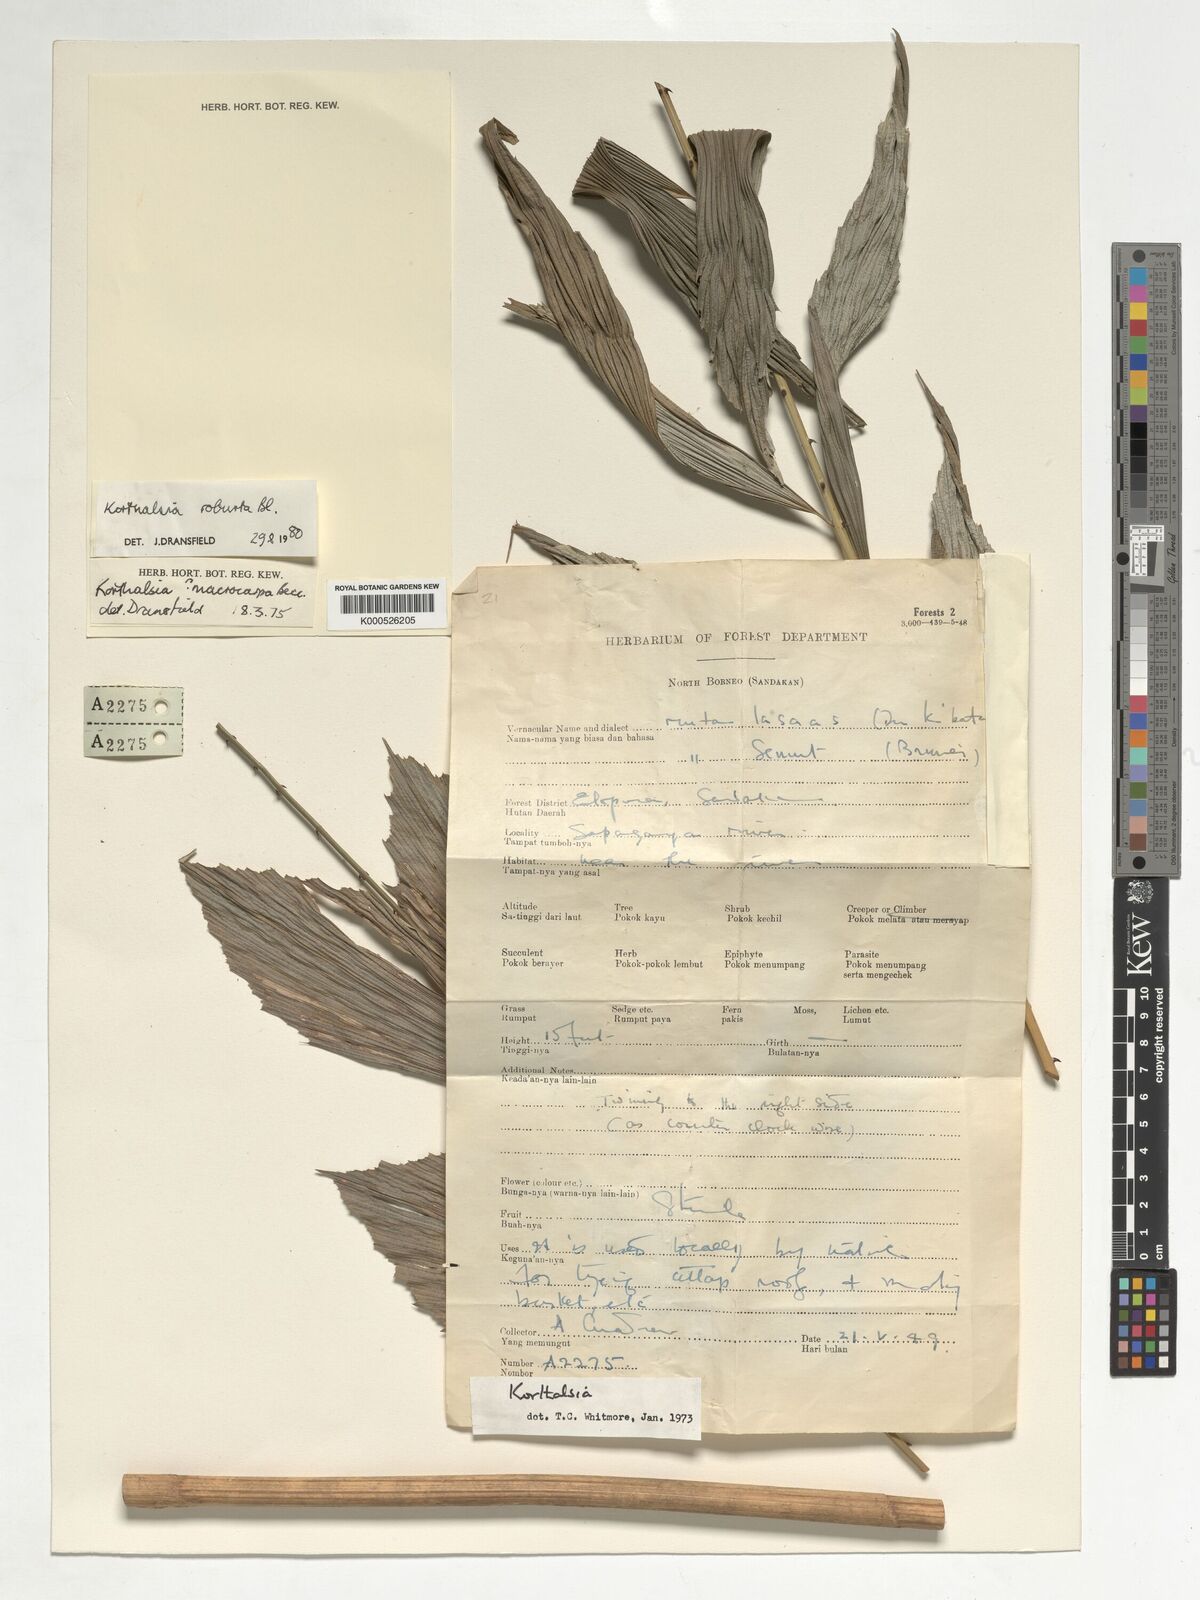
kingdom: Plantae
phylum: Tracheophyta
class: Liliopsida
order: Arecales
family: Arecaceae
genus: Korthalsia
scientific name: Korthalsia robusta
